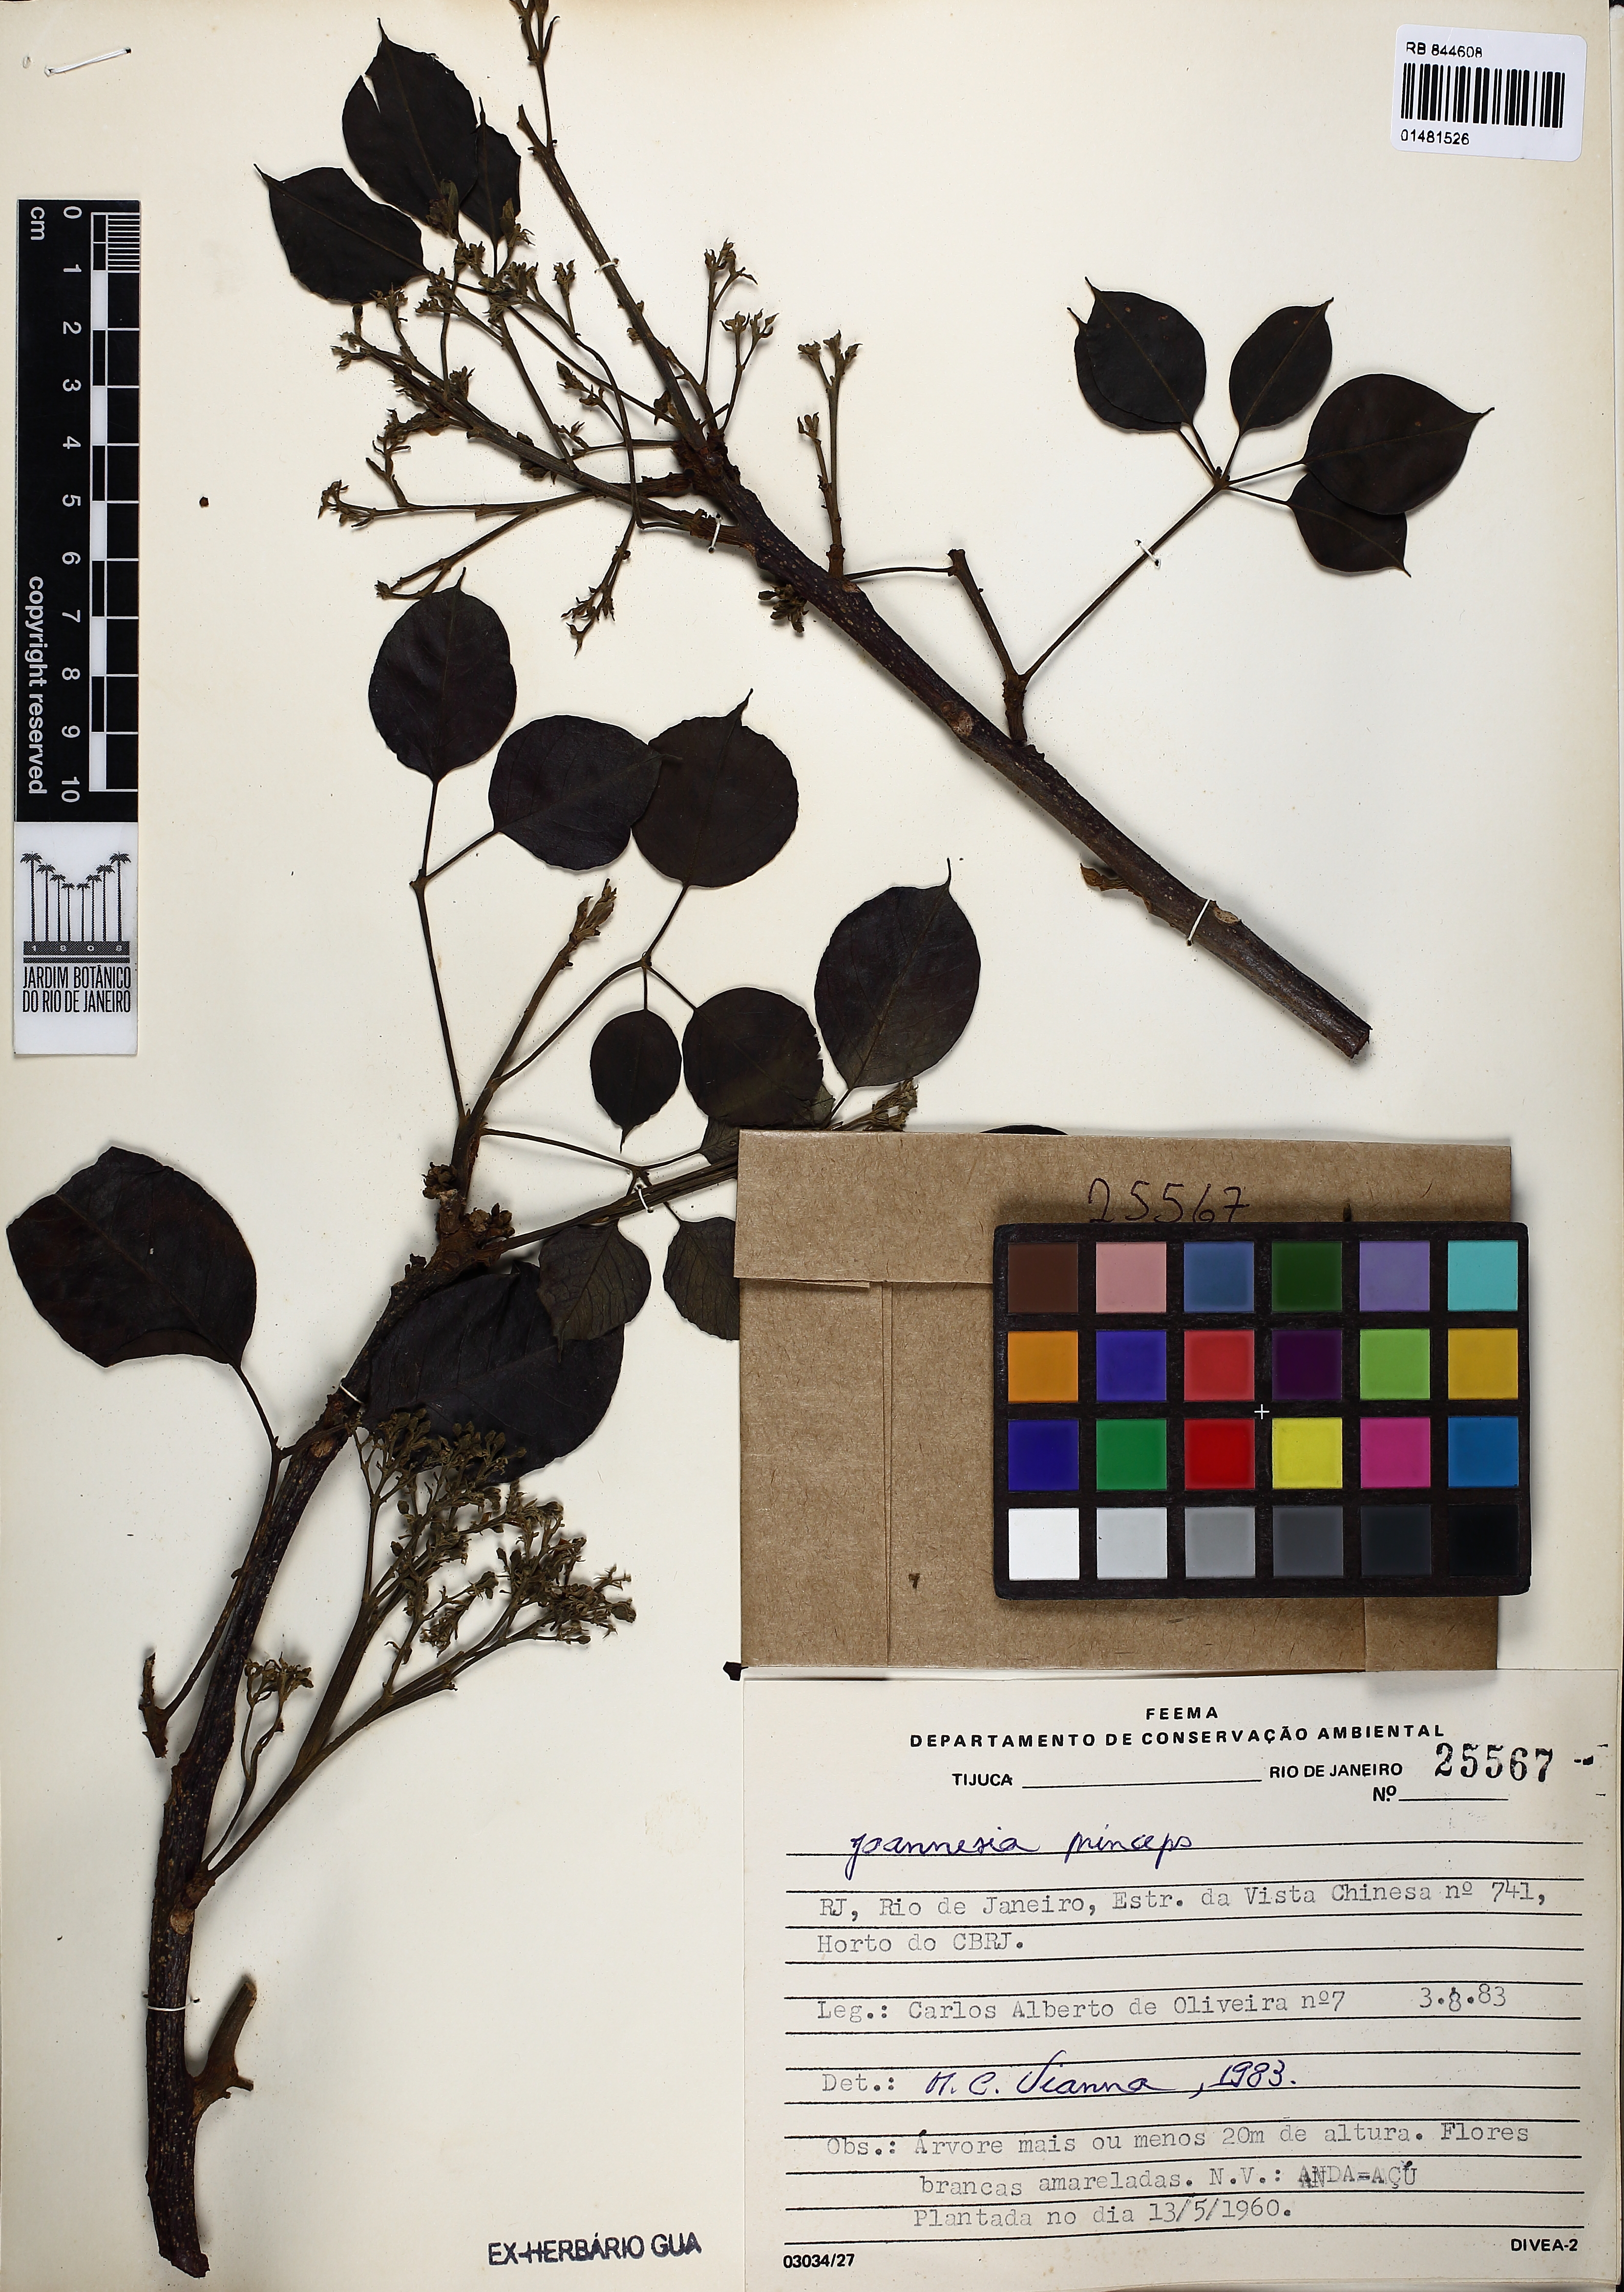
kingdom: Plantae
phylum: Tracheophyta
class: Magnoliopsida
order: Malpighiales
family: Euphorbiaceae
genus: Joannesia
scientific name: Joannesia princeps
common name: Arara nut-tree
